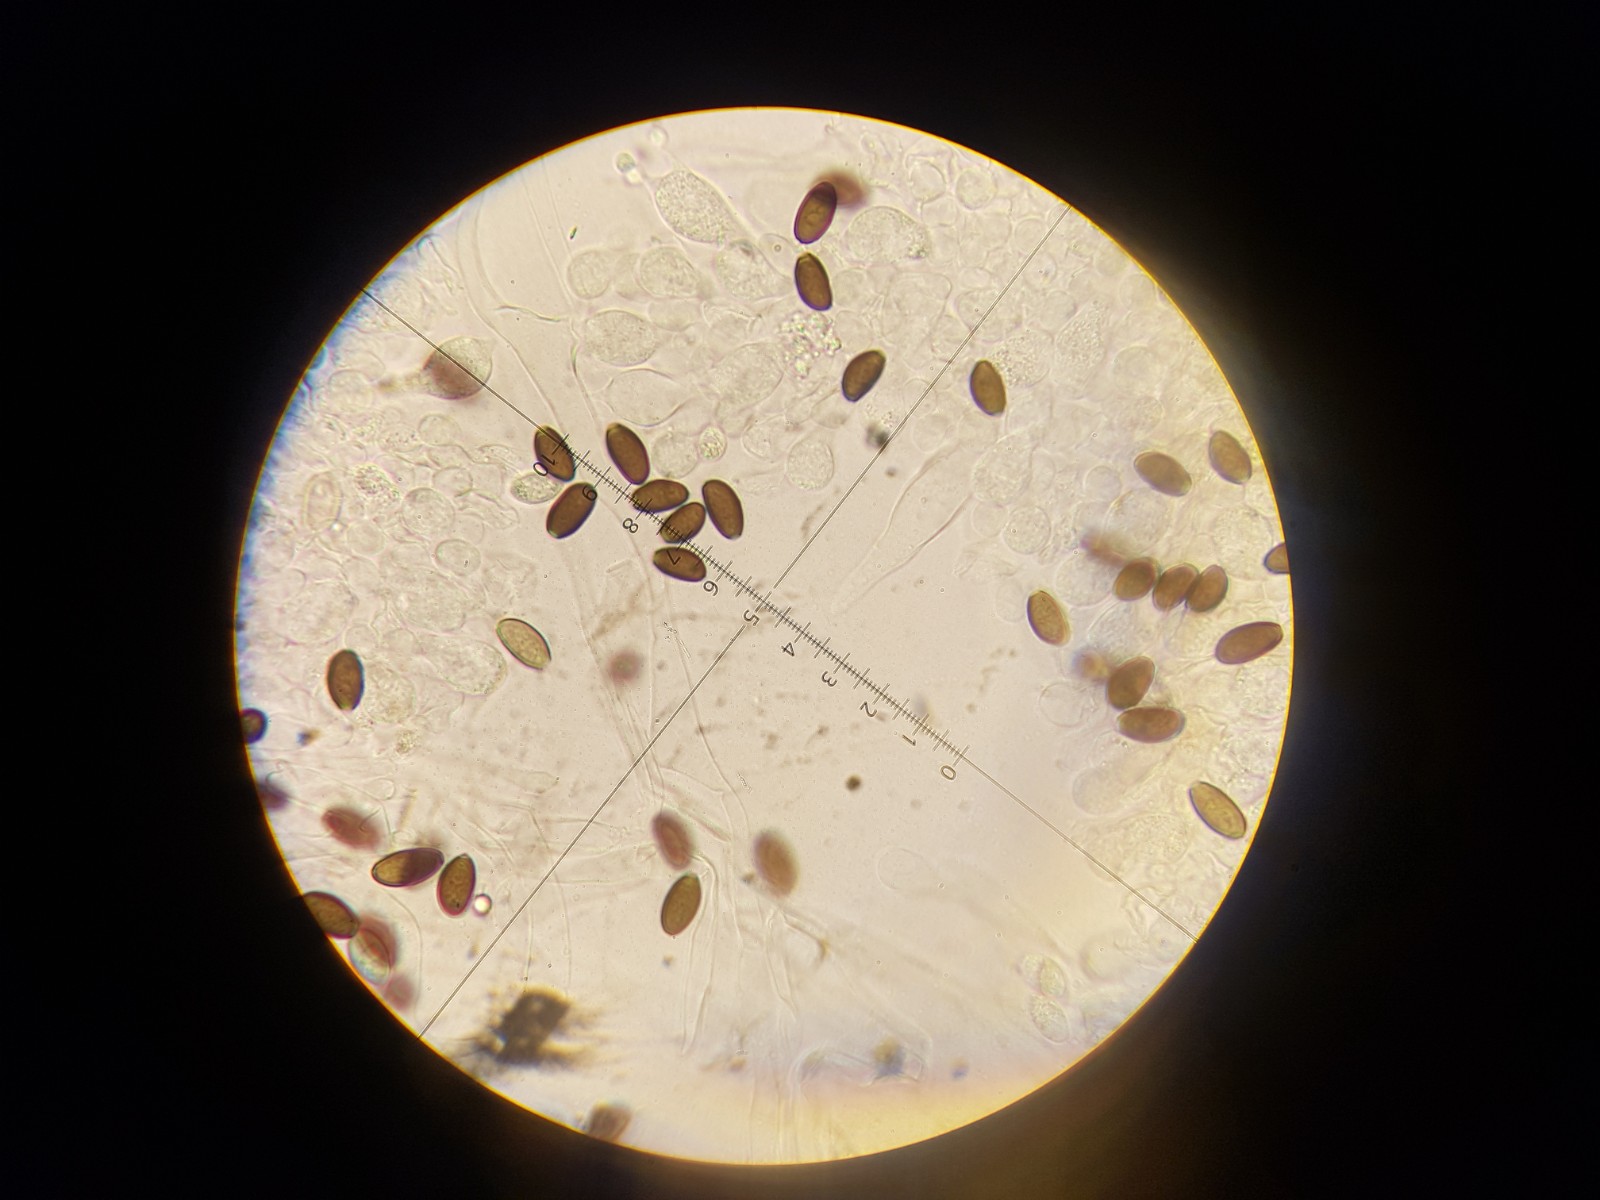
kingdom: Fungi
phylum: Basidiomycota
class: Agaricomycetes
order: Agaricales
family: Psathyrellaceae
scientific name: Psathyrellaceae
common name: mørkhatfamilien
